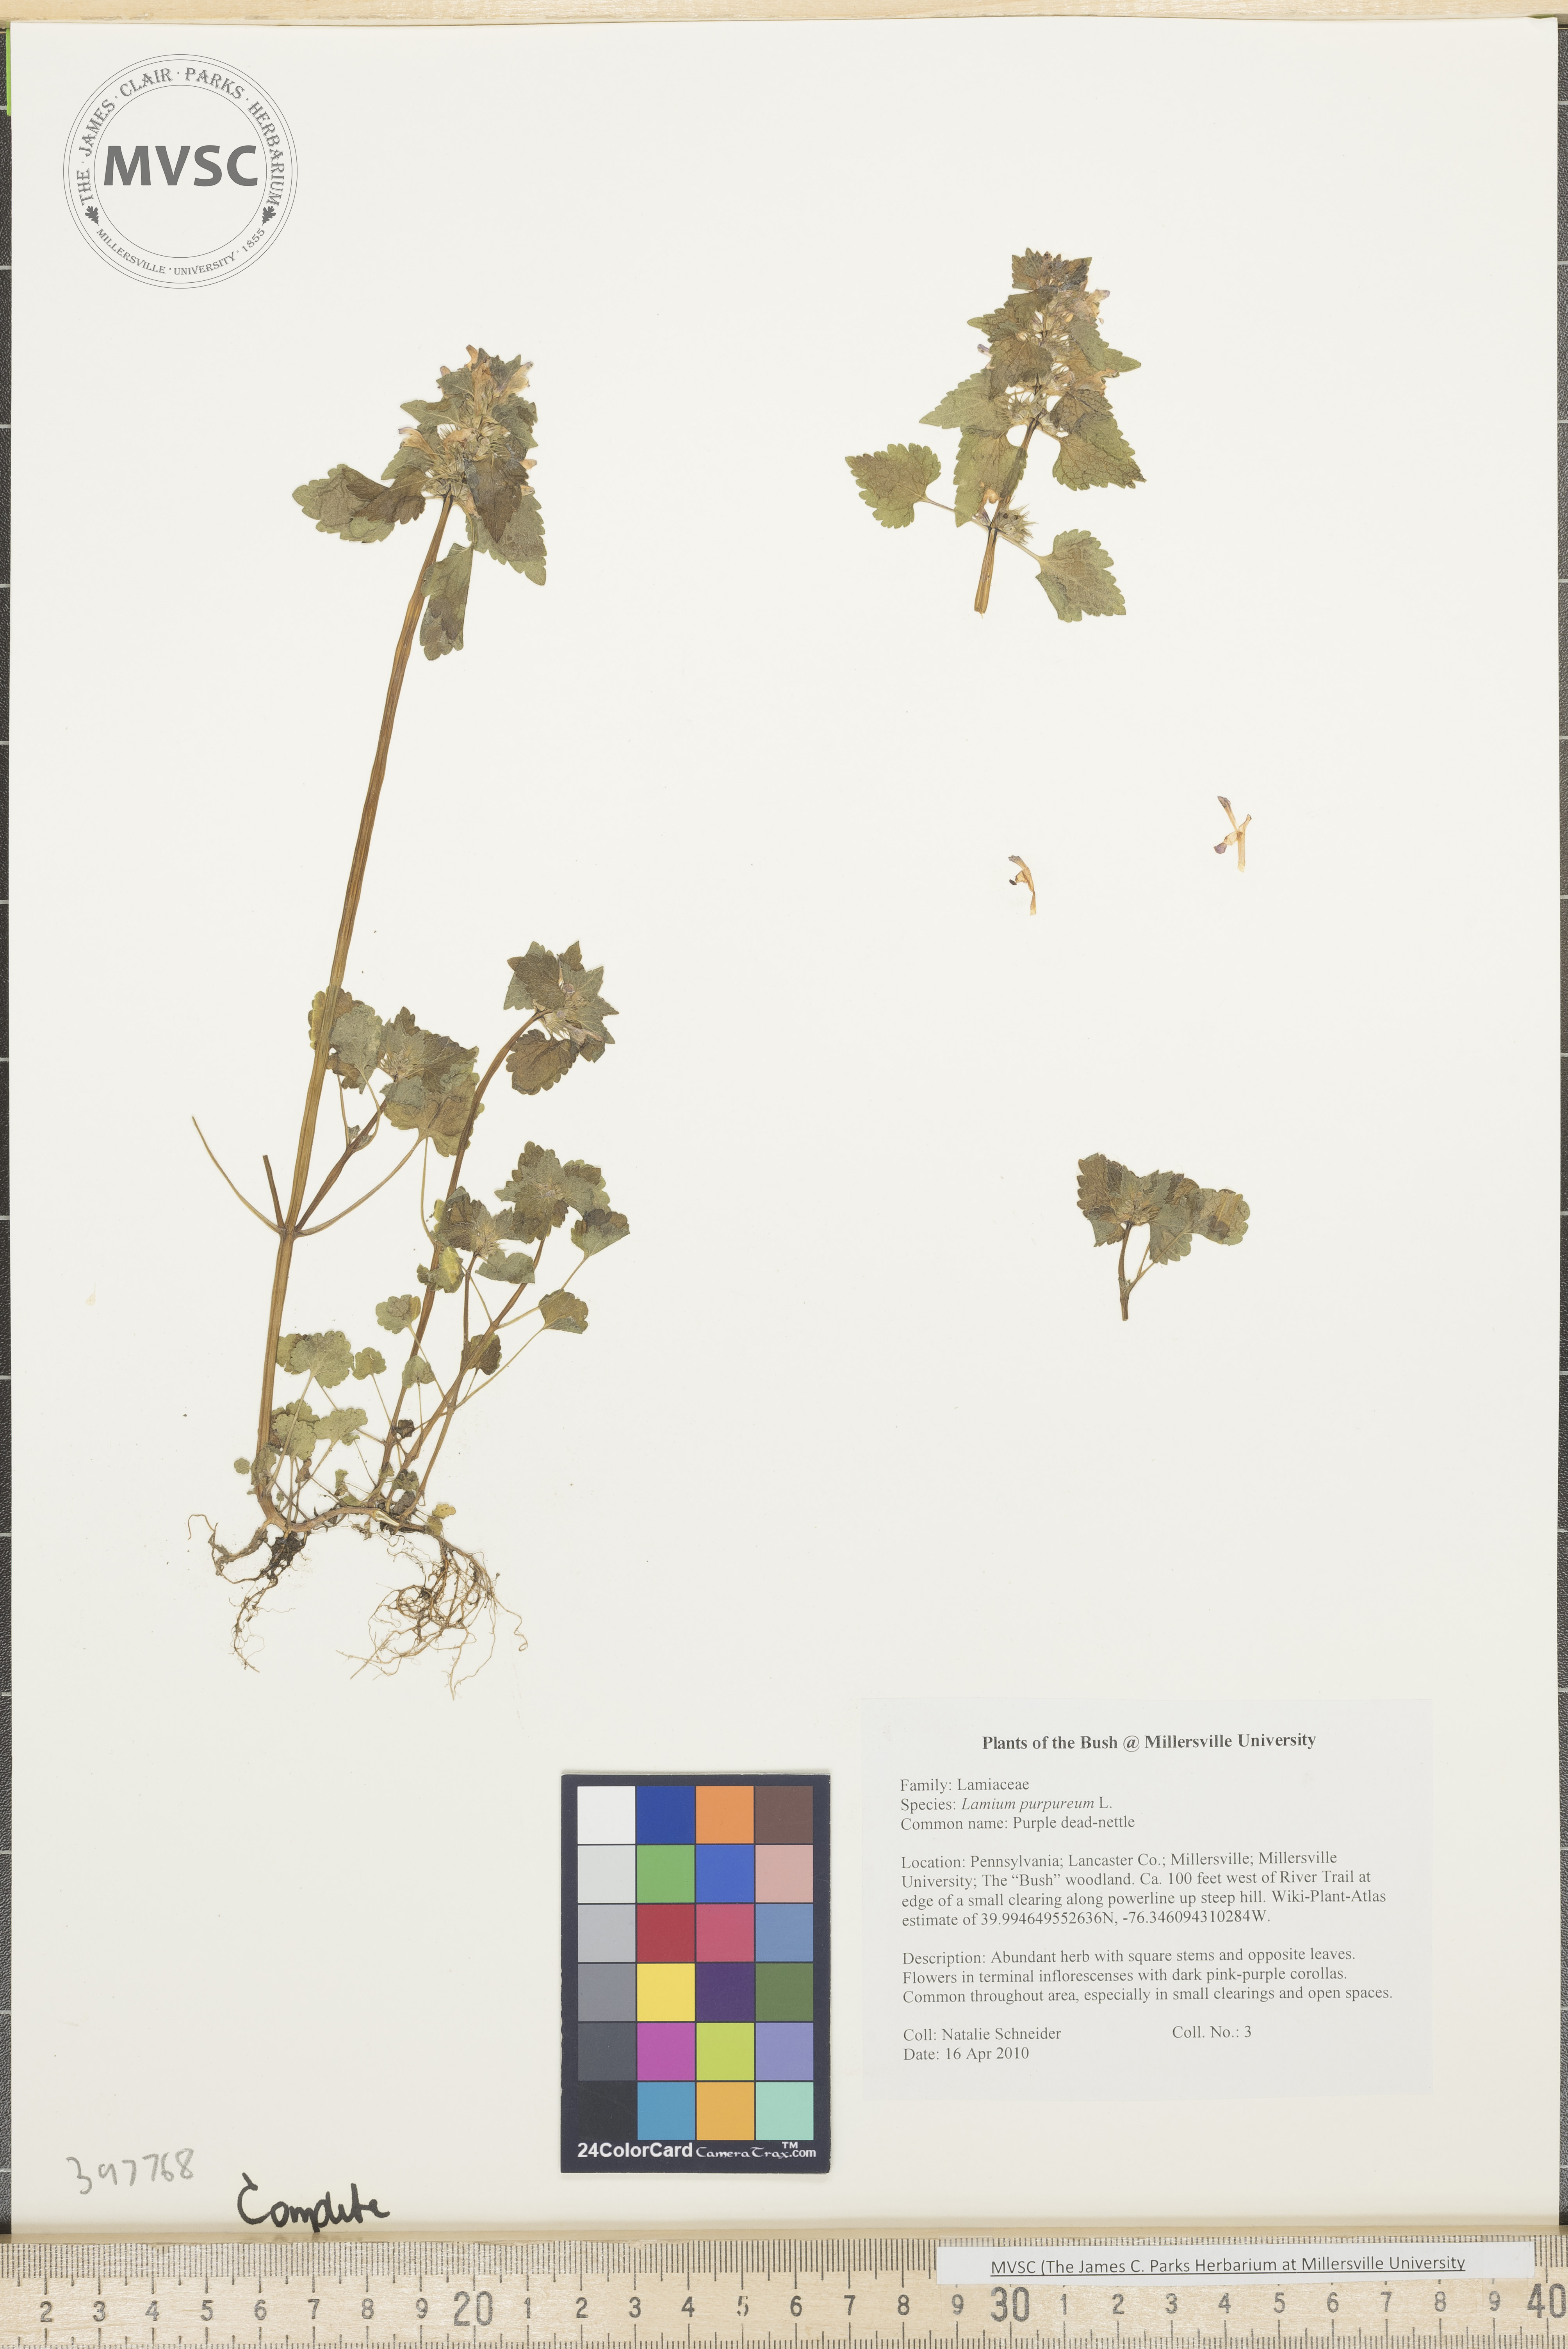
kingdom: Plantae
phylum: Tracheophyta
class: Magnoliopsida
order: Lamiales
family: Lamiaceae
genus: Lamium
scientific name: Lamium purpureum
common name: Purple dead-nettle
